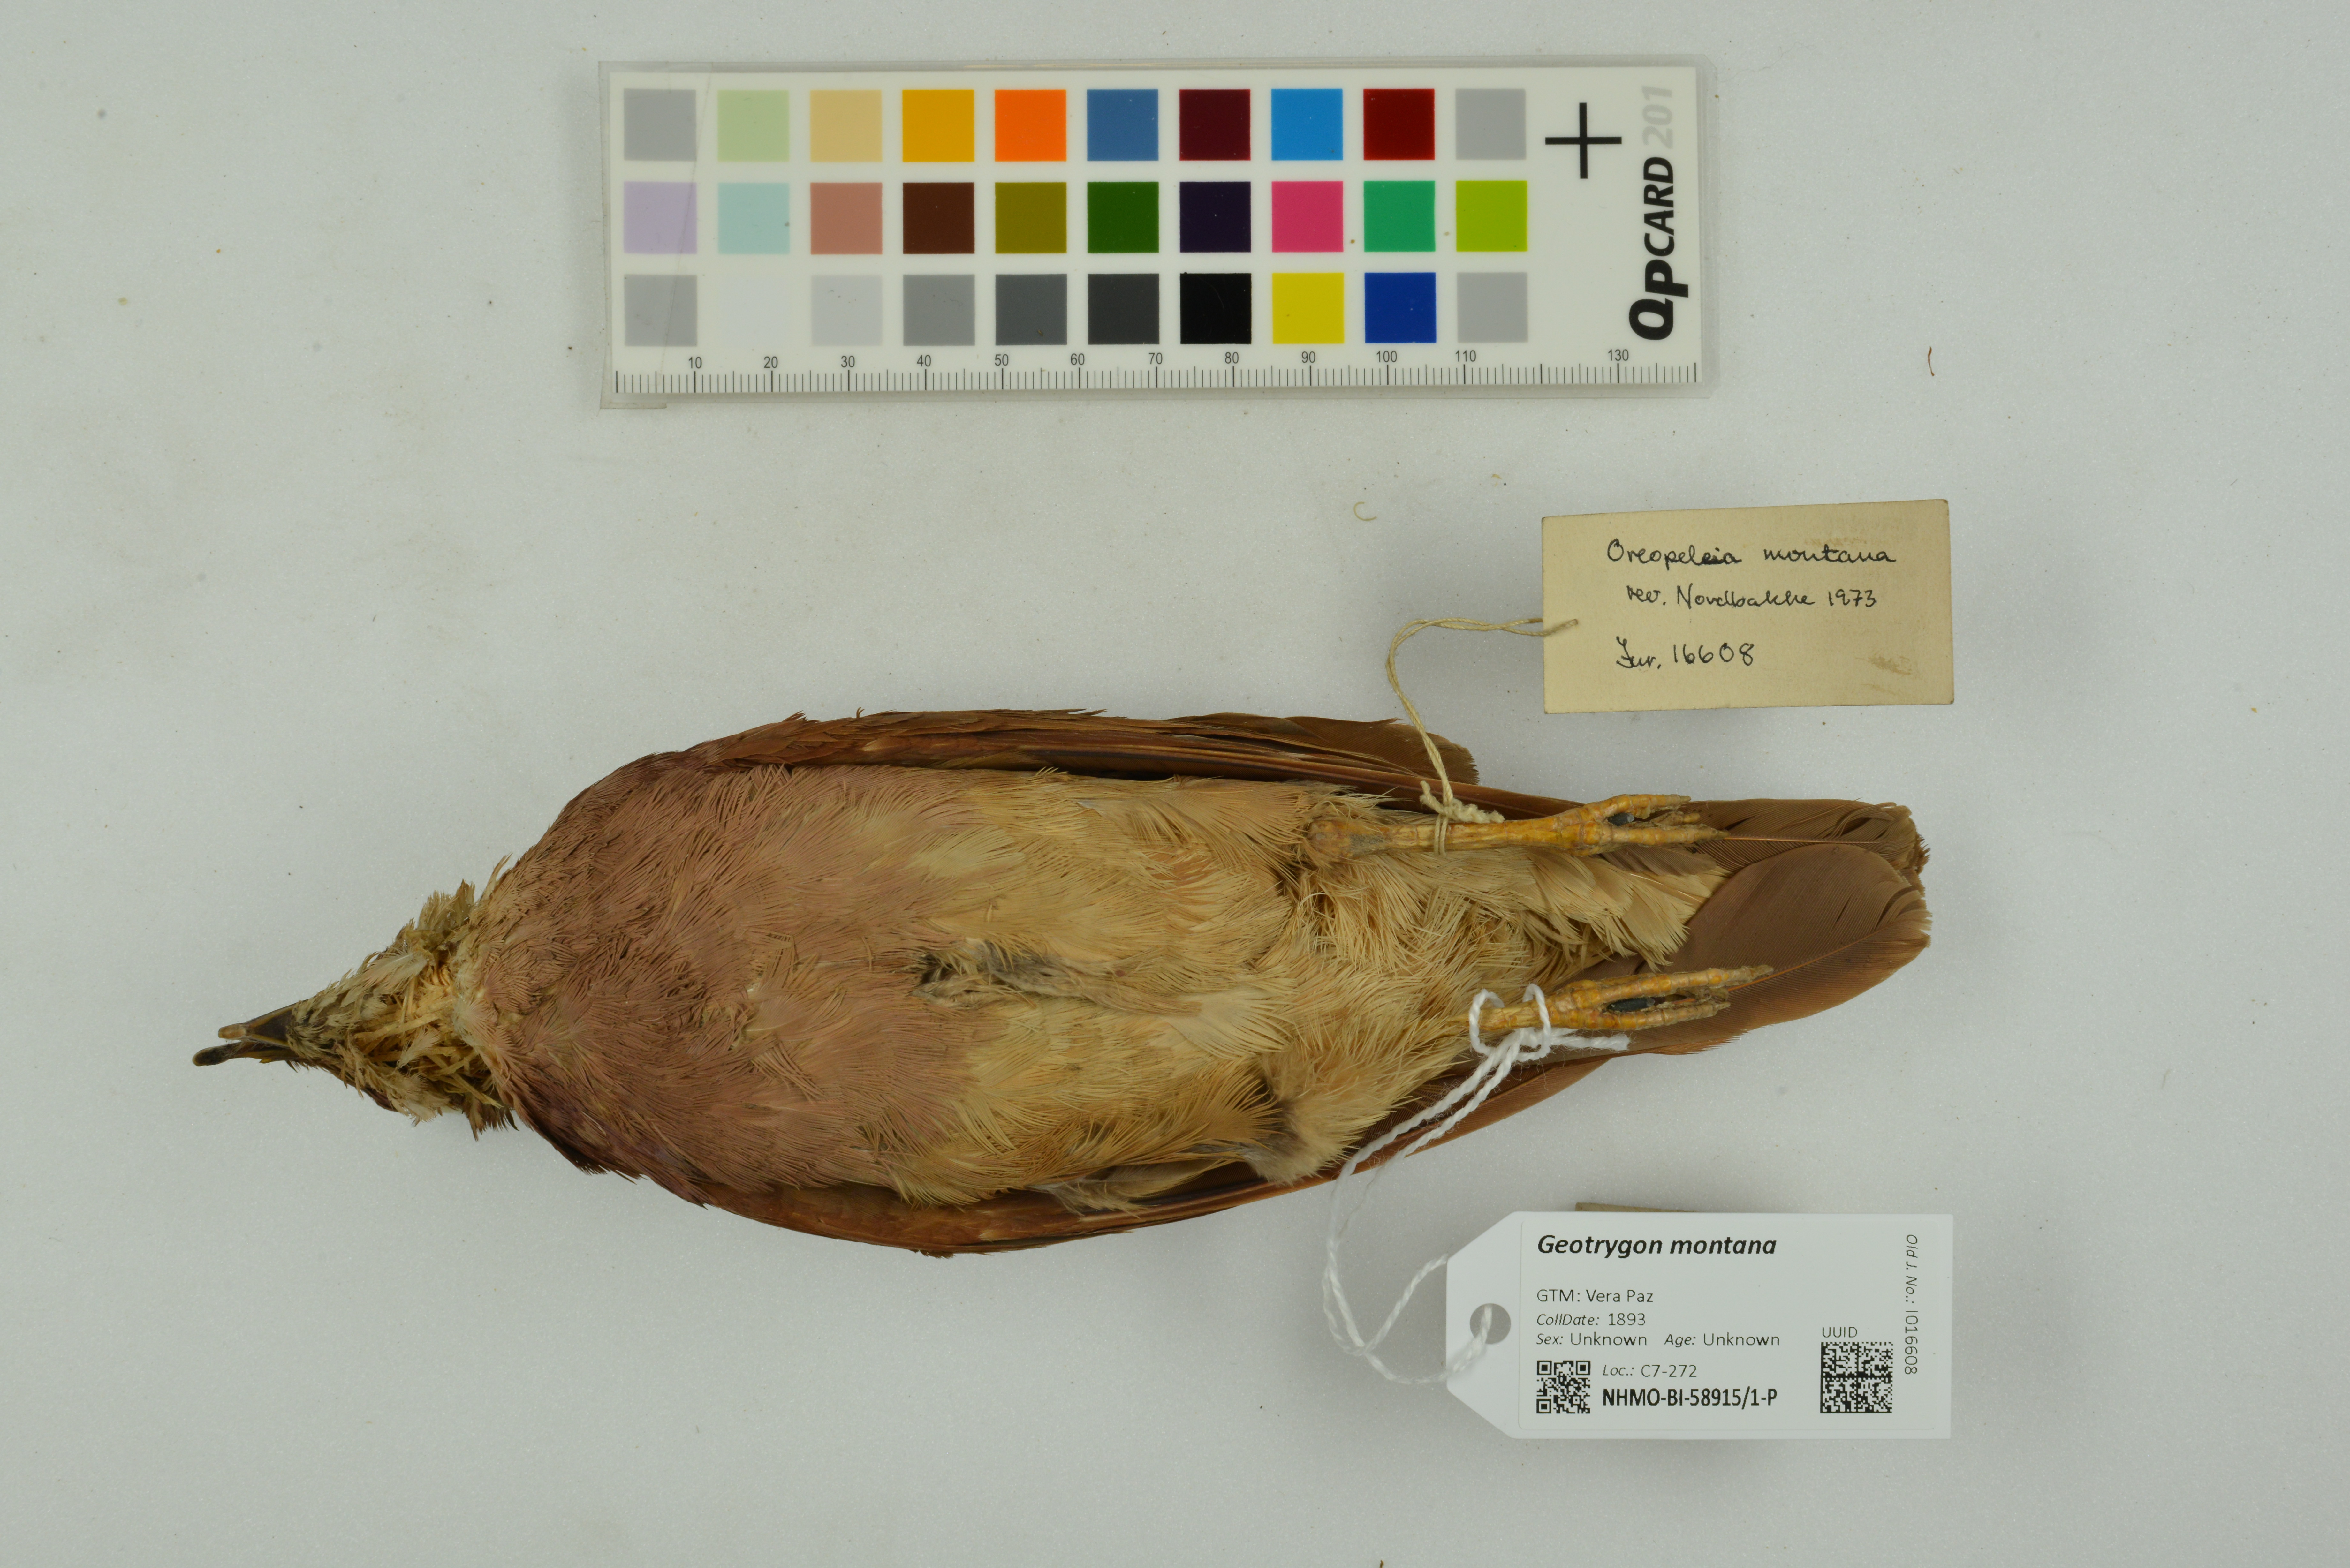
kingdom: Animalia
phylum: Chordata
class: Aves
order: Columbiformes
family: Columbidae
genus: Geotrygon
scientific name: Geotrygon montana
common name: Ruddy quail-dove
